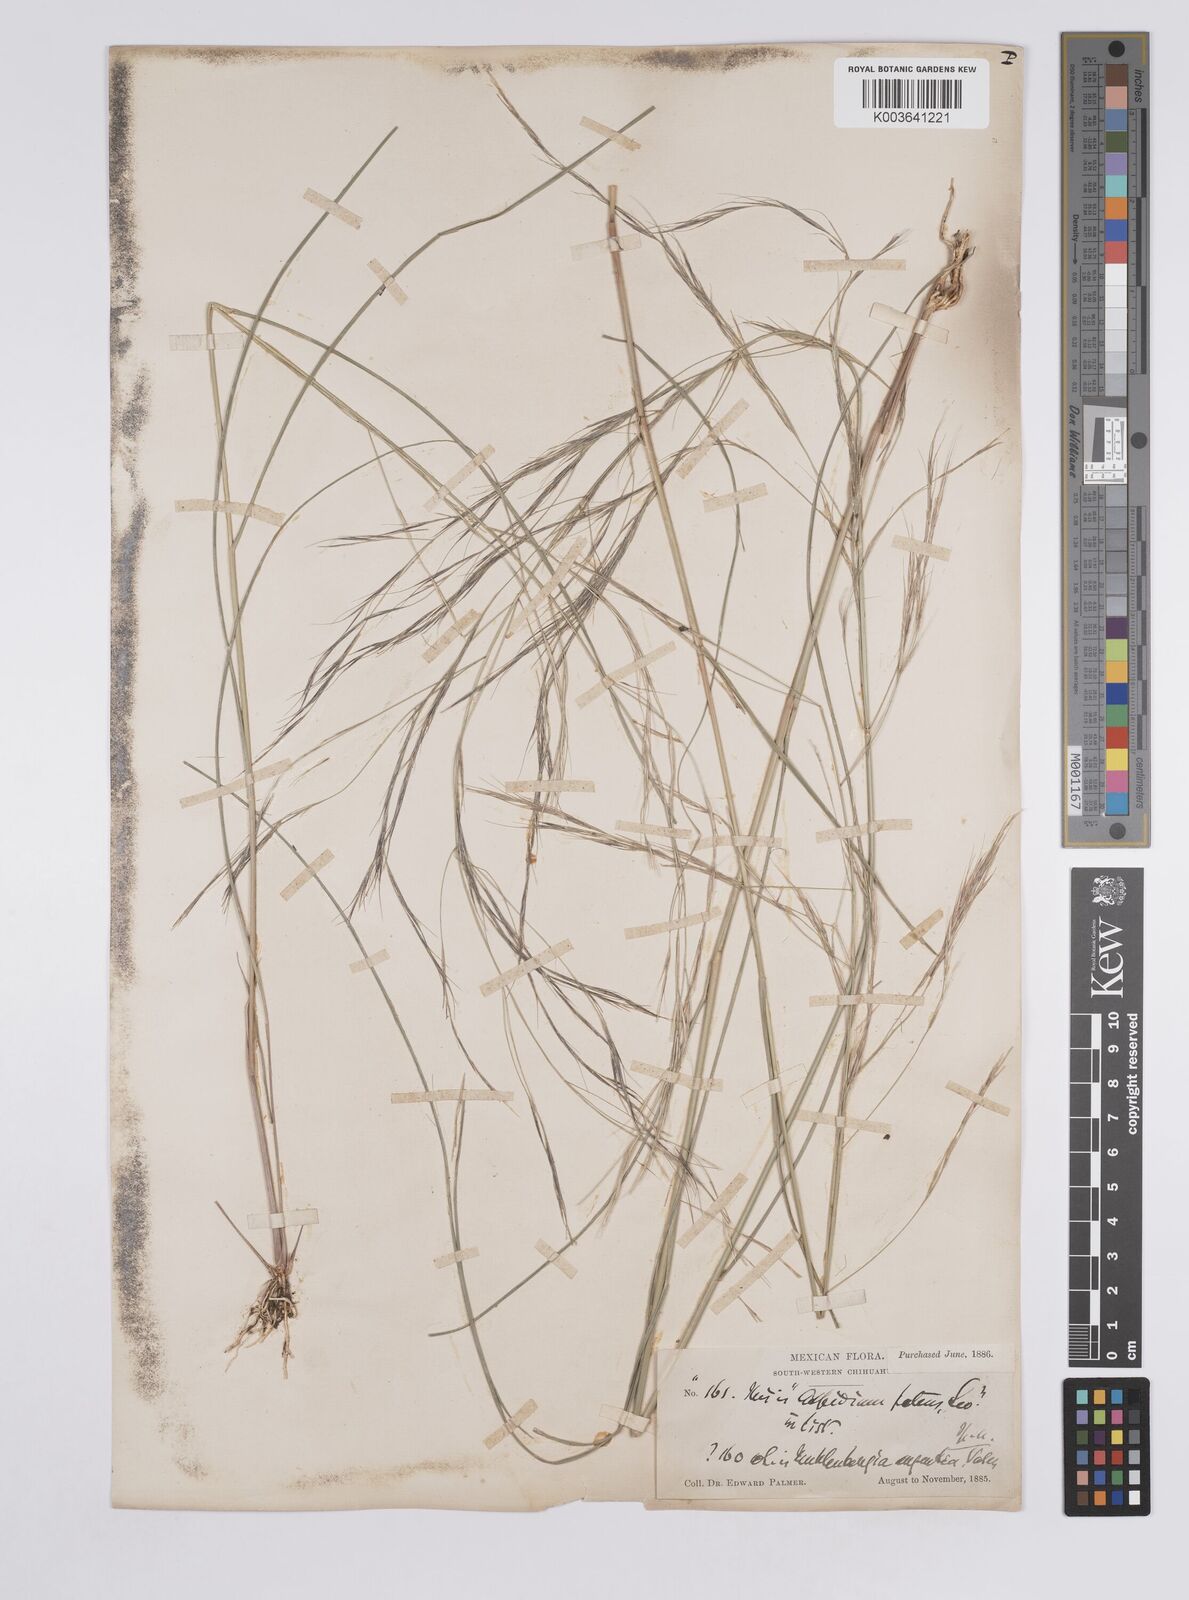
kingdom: Plantae
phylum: Tracheophyta
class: Liliopsida
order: Poales
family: Poaceae
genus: Aristida
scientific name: Aristida
